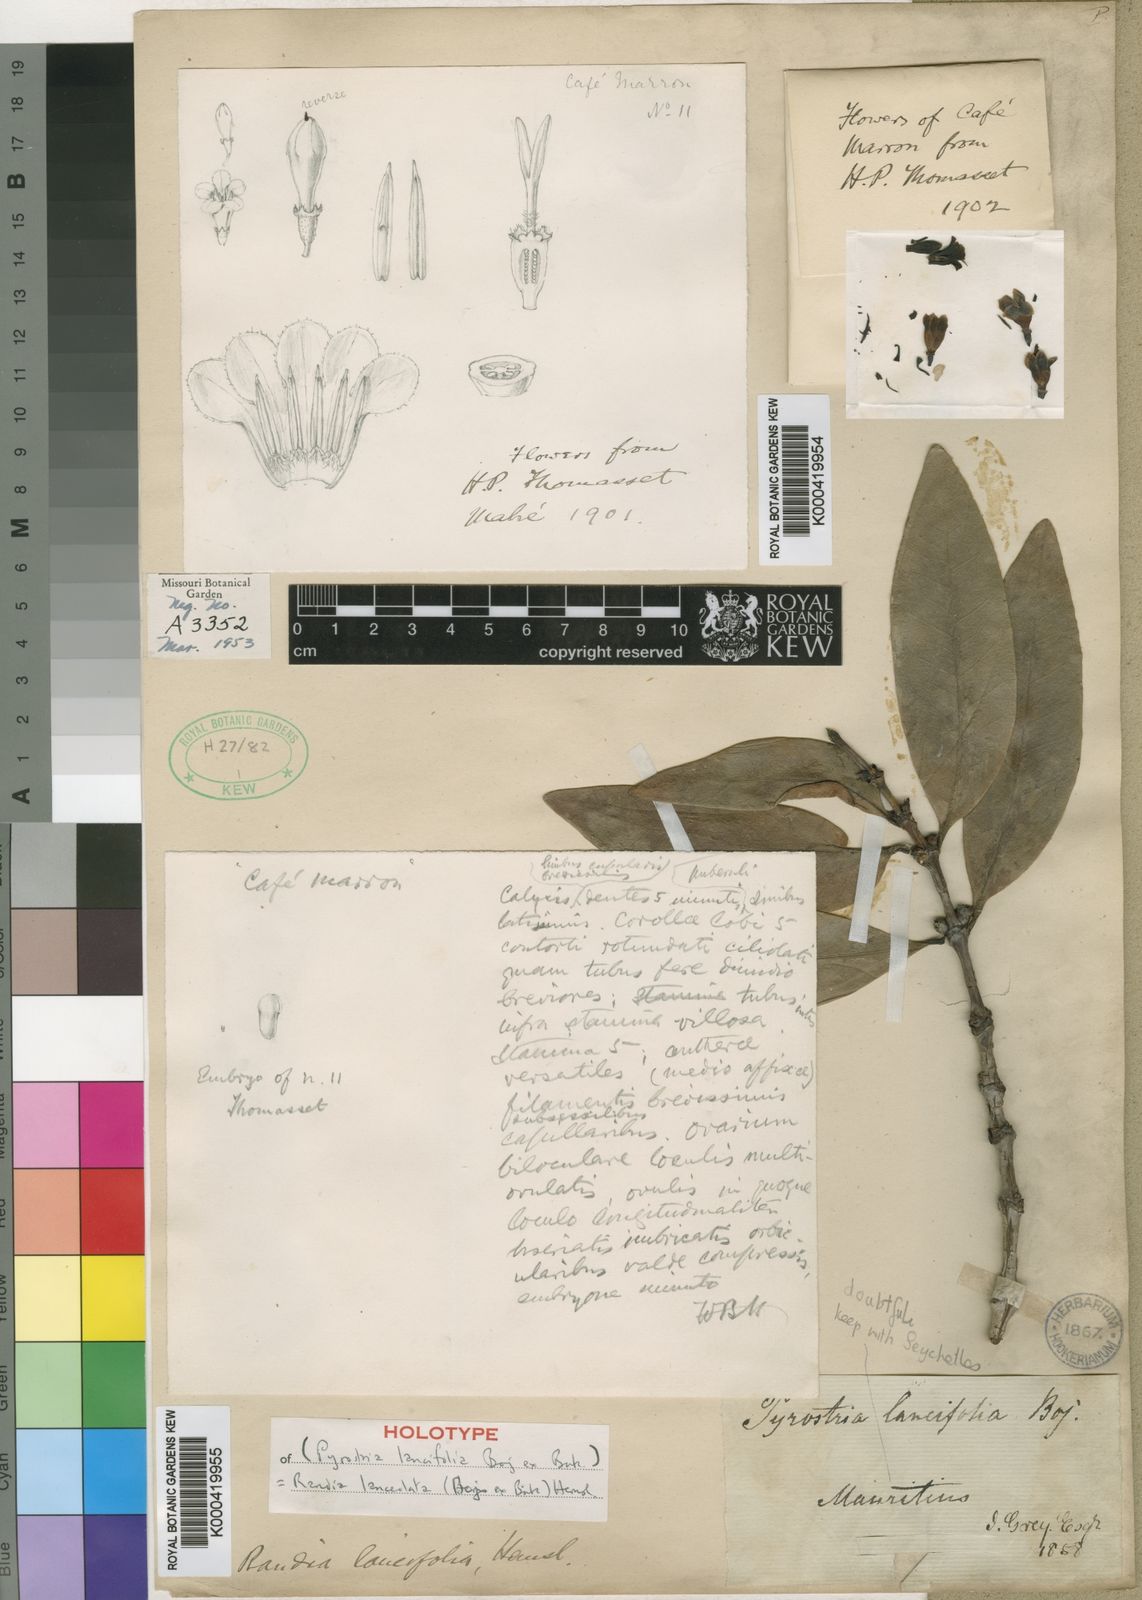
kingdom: Plantae
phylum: Tracheophyta
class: Magnoliopsida
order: Gentianales
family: Rubiaceae
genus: Paragenipa
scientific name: Paragenipa lancifolia
